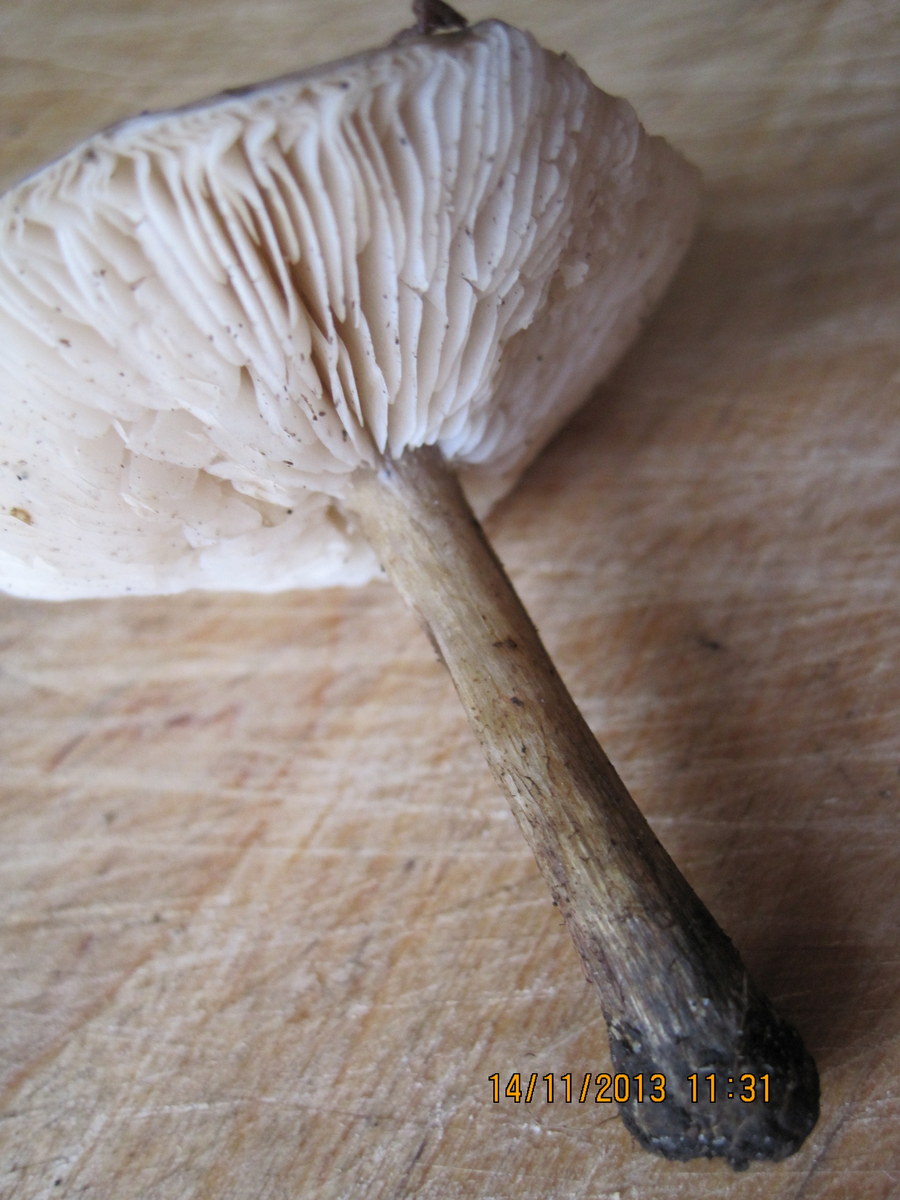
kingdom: Fungi
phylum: Basidiomycota
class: Agaricomycetes
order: Agaricales
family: Tricholomataceae
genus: Melanoleuca
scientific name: Melanoleuca polioleuca
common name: hvidbladet munkehat
